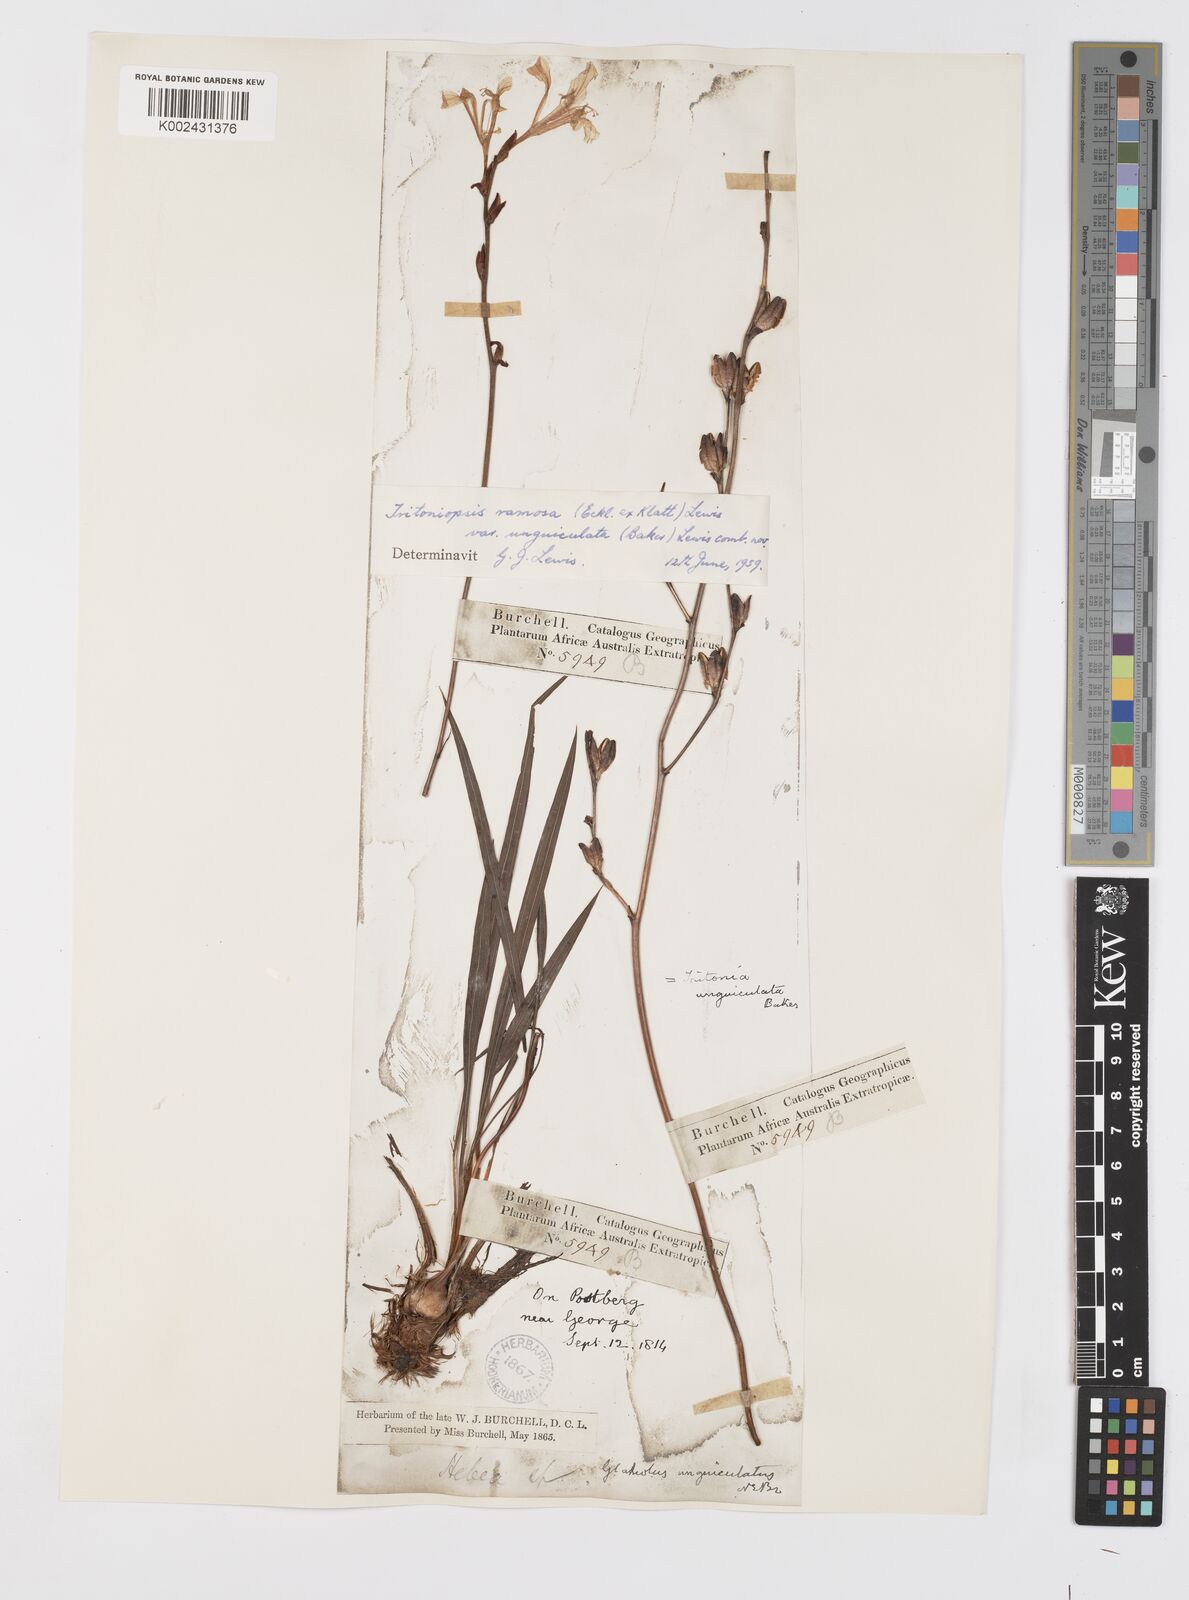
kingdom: Plantae
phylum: Tracheophyta
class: Liliopsida
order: Asparagales
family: Iridaceae
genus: Tritoniopsis
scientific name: Tritoniopsis ramosa
